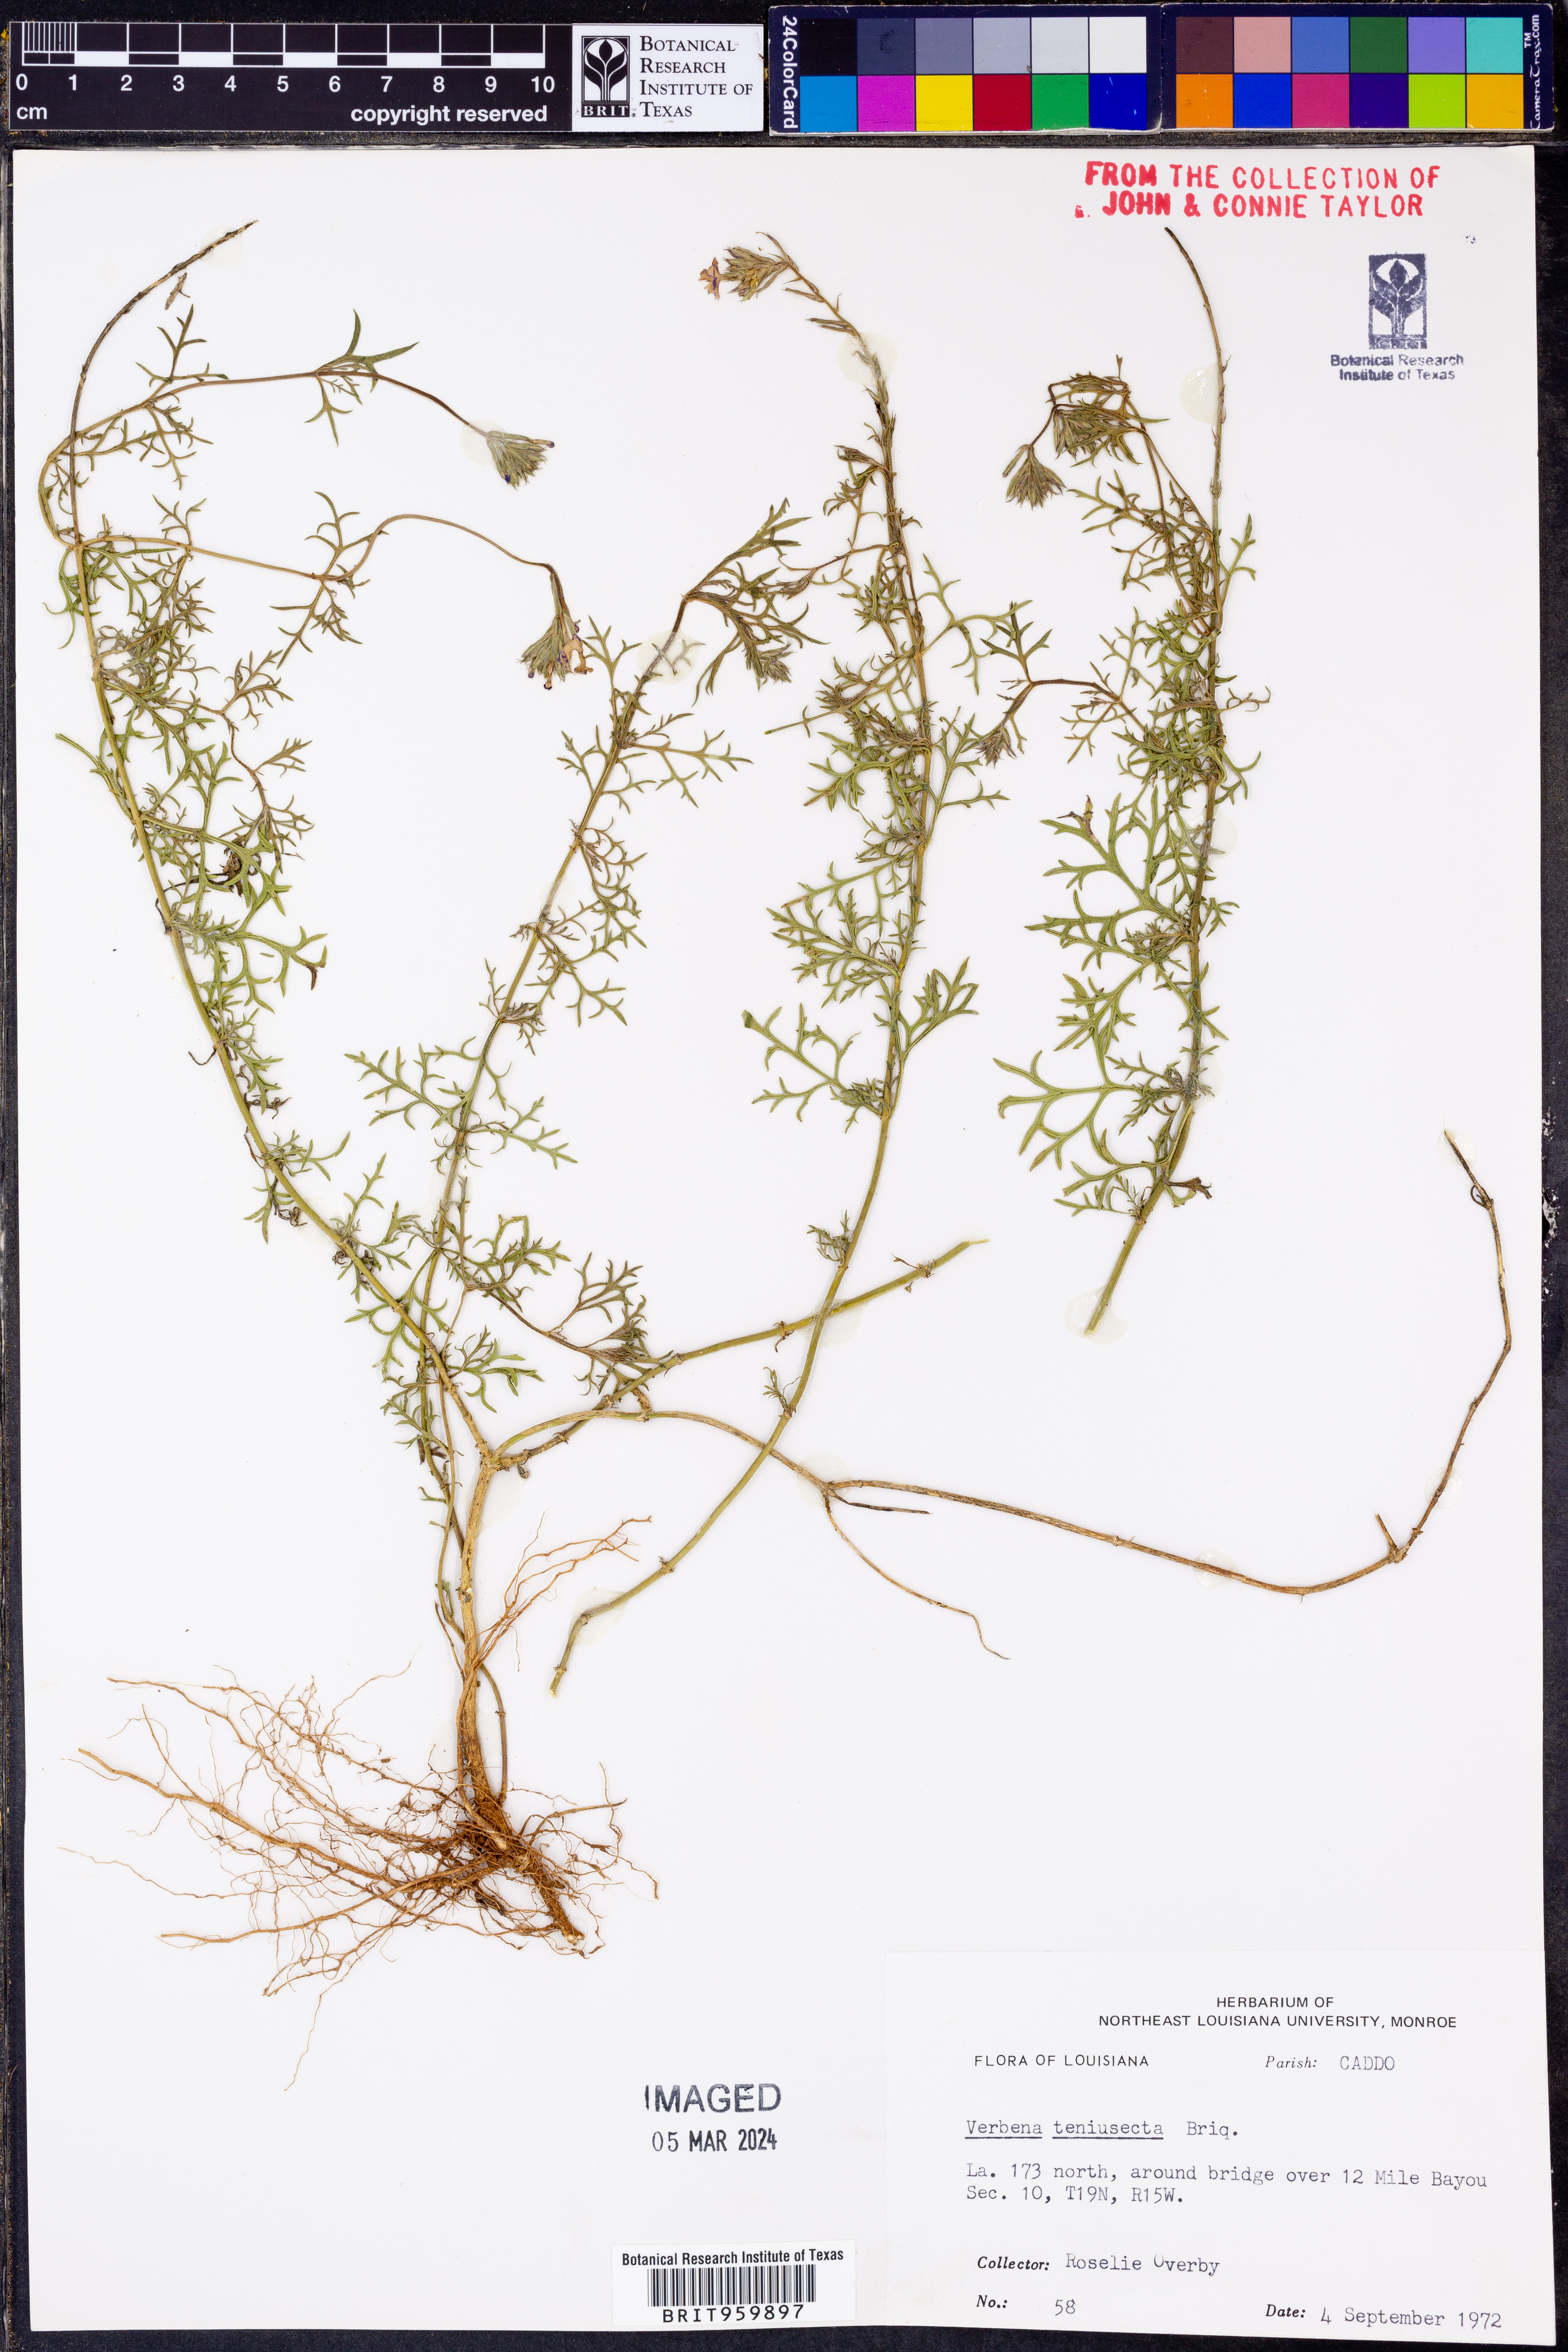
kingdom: Plantae
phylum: Tracheophyta
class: Magnoliopsida
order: Lamiales
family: Verbenaceae
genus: Verbena
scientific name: Verbena tenera
